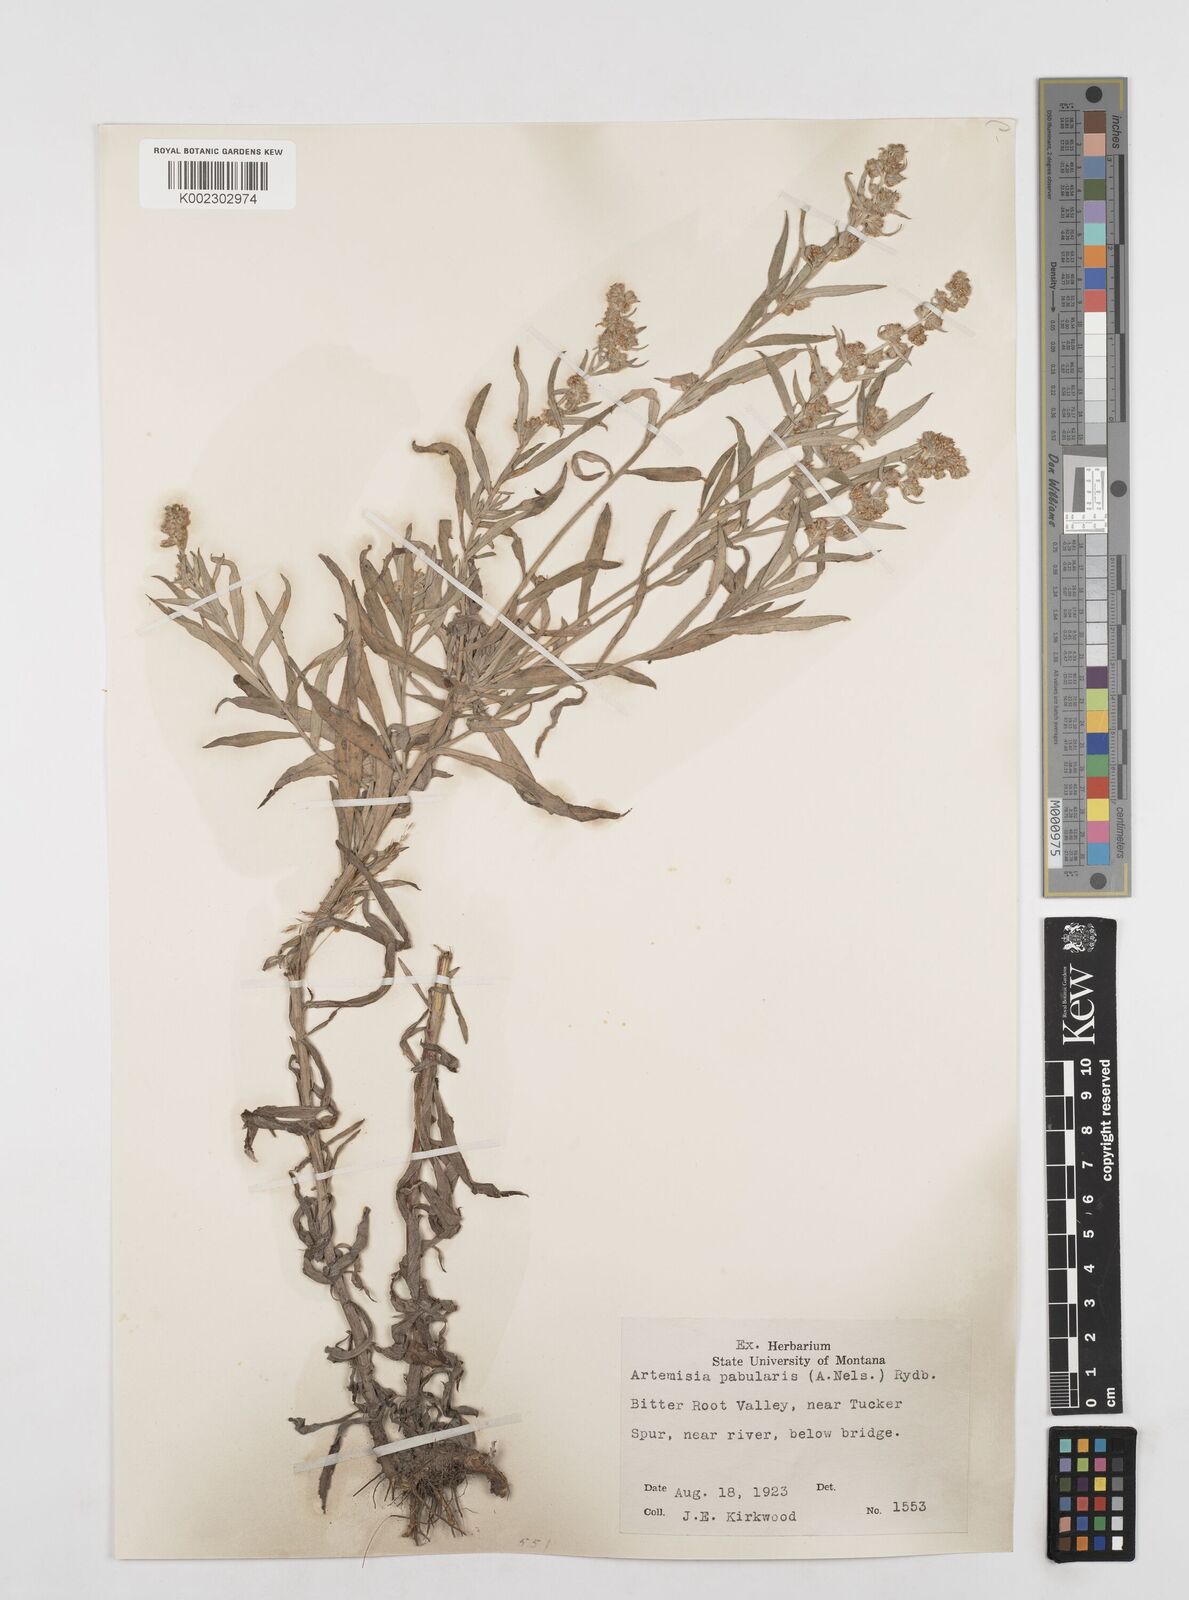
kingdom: Plantae
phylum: Tracheophyta
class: Magnoliopsida
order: Asterales
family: Asteraceae
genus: Artemisia
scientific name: Artemisia ludoviciana
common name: Western mugwort
